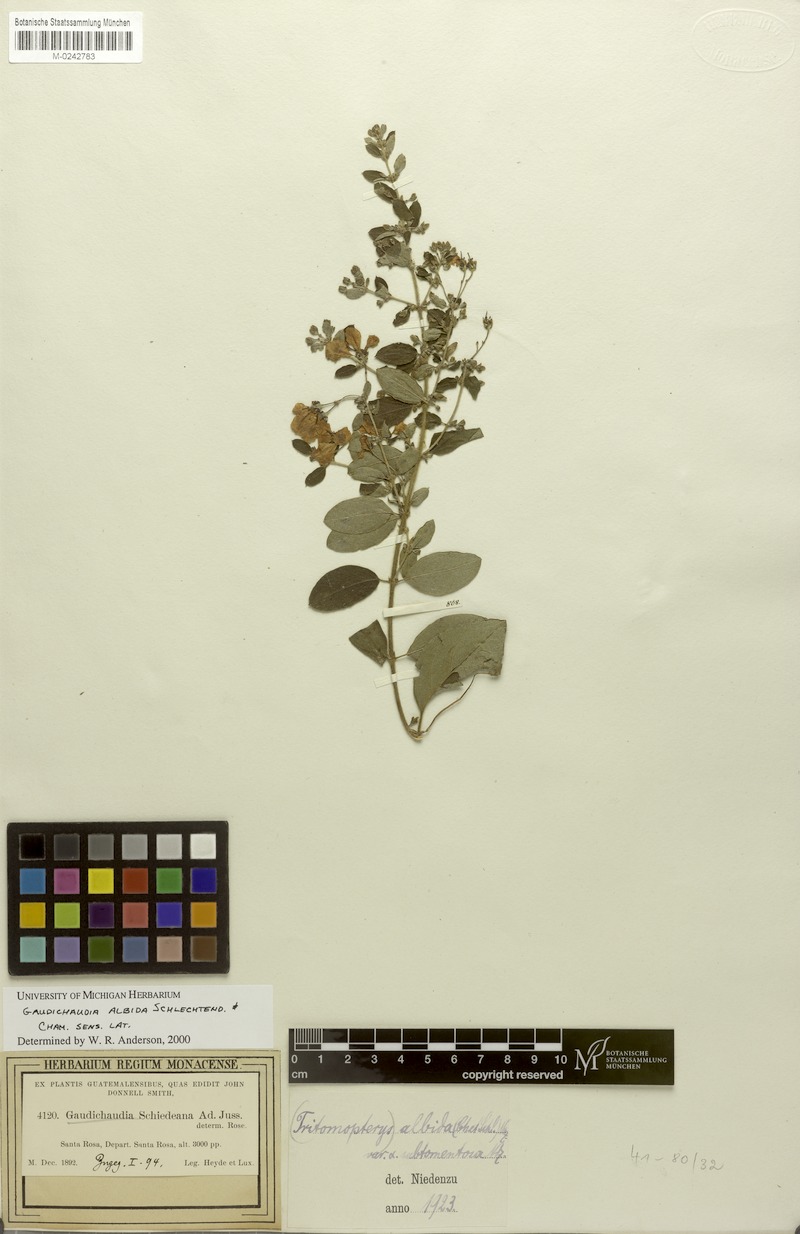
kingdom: Plantae
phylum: Tracheophyta
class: Magnoliopsida
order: Malpighiales
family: Malpighiaceae
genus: Gaudichaudia
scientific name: Gaudichaudia albida
